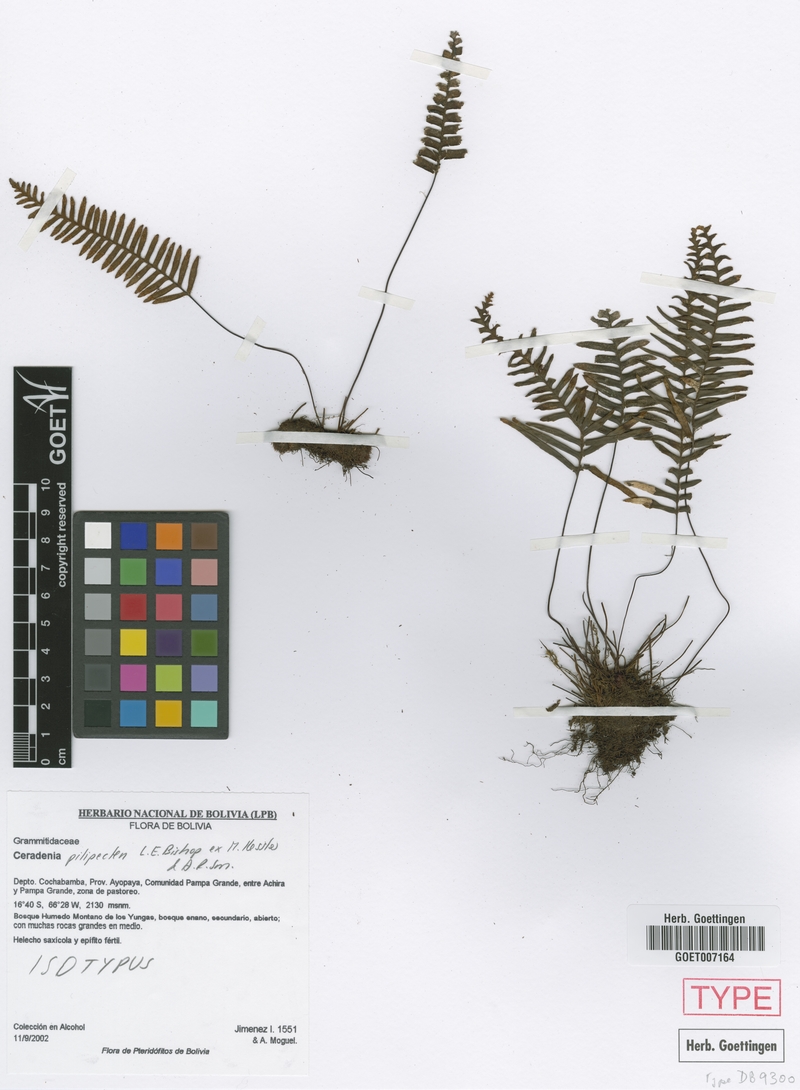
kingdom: Plantae
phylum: Tracheophyta
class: Polypodiopsida
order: Polypodiales
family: Polypodiaceae
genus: Ceradenia
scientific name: Ceradenia pilipecten
